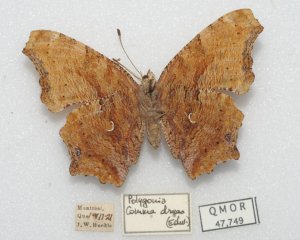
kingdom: Animalia
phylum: Arthropoda
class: Insecta
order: Lepidoptera
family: Nymphalidae
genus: Polygonia
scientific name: Polygonia comma
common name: Eastern Comma
